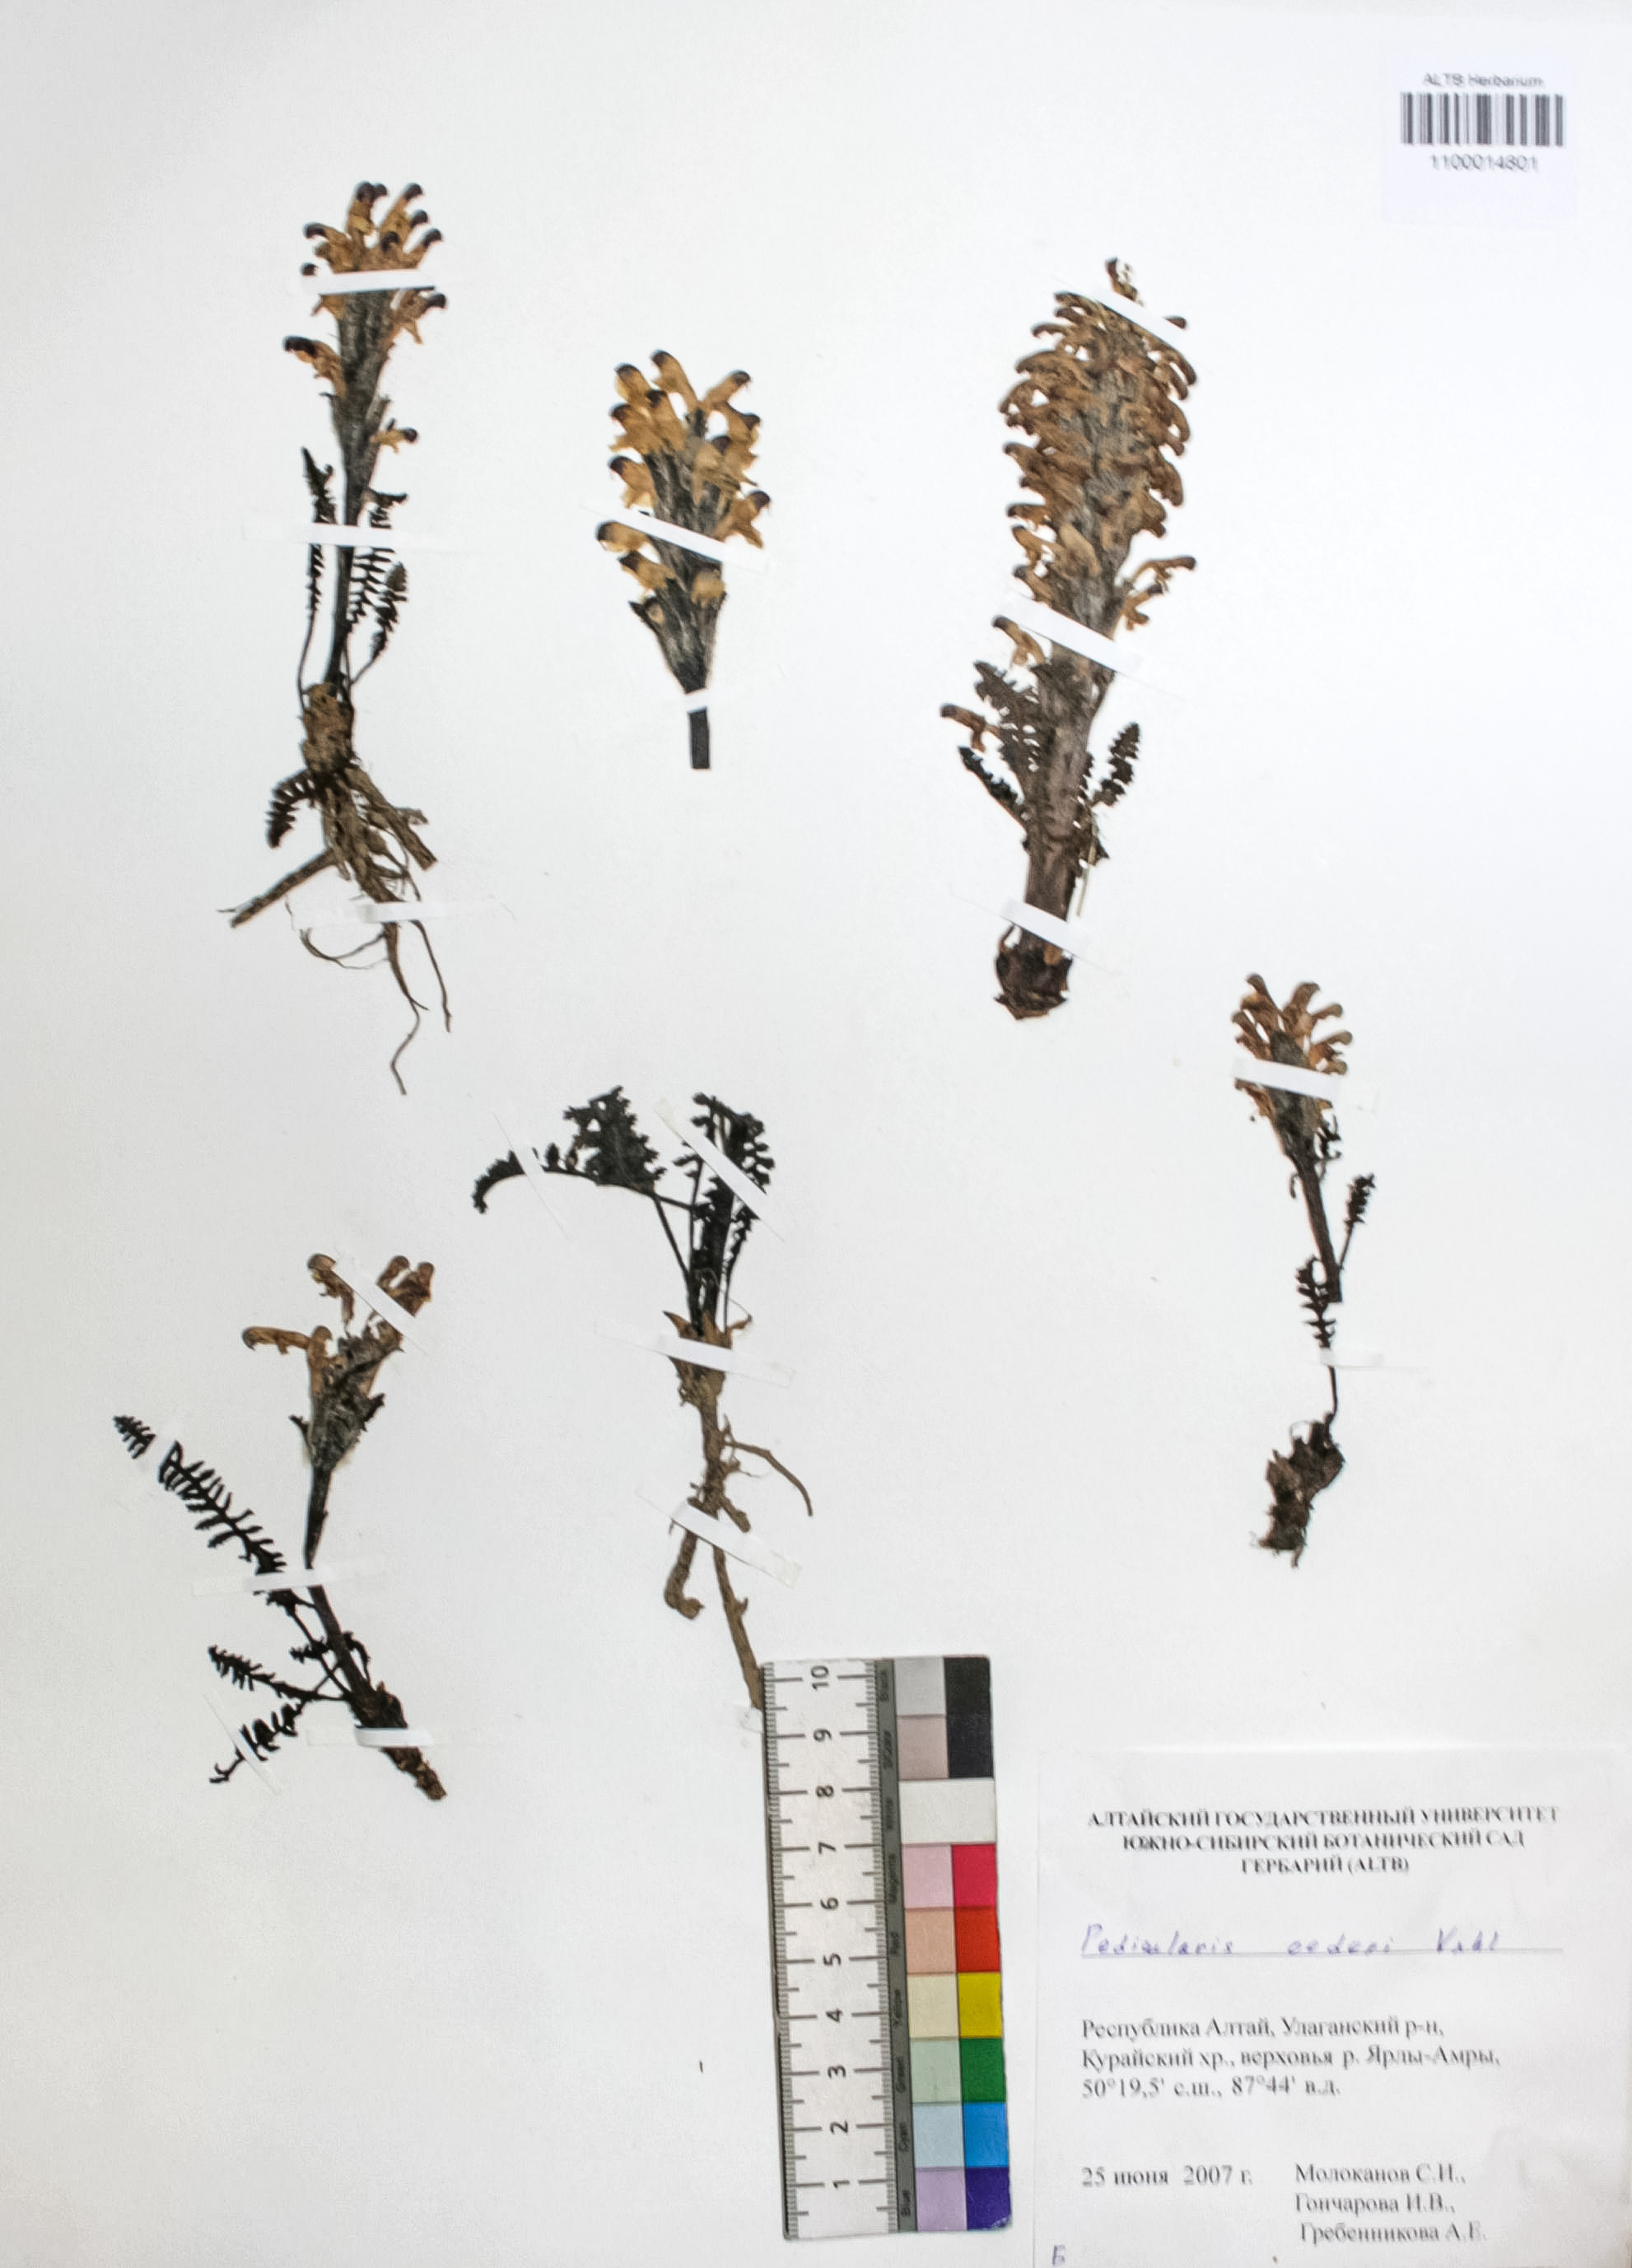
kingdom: Plantae
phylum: Tracheophyta
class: Magnoliopsida
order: Caryophyllales
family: Caryophyllaceae
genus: Silene
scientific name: Silene graminifolia
